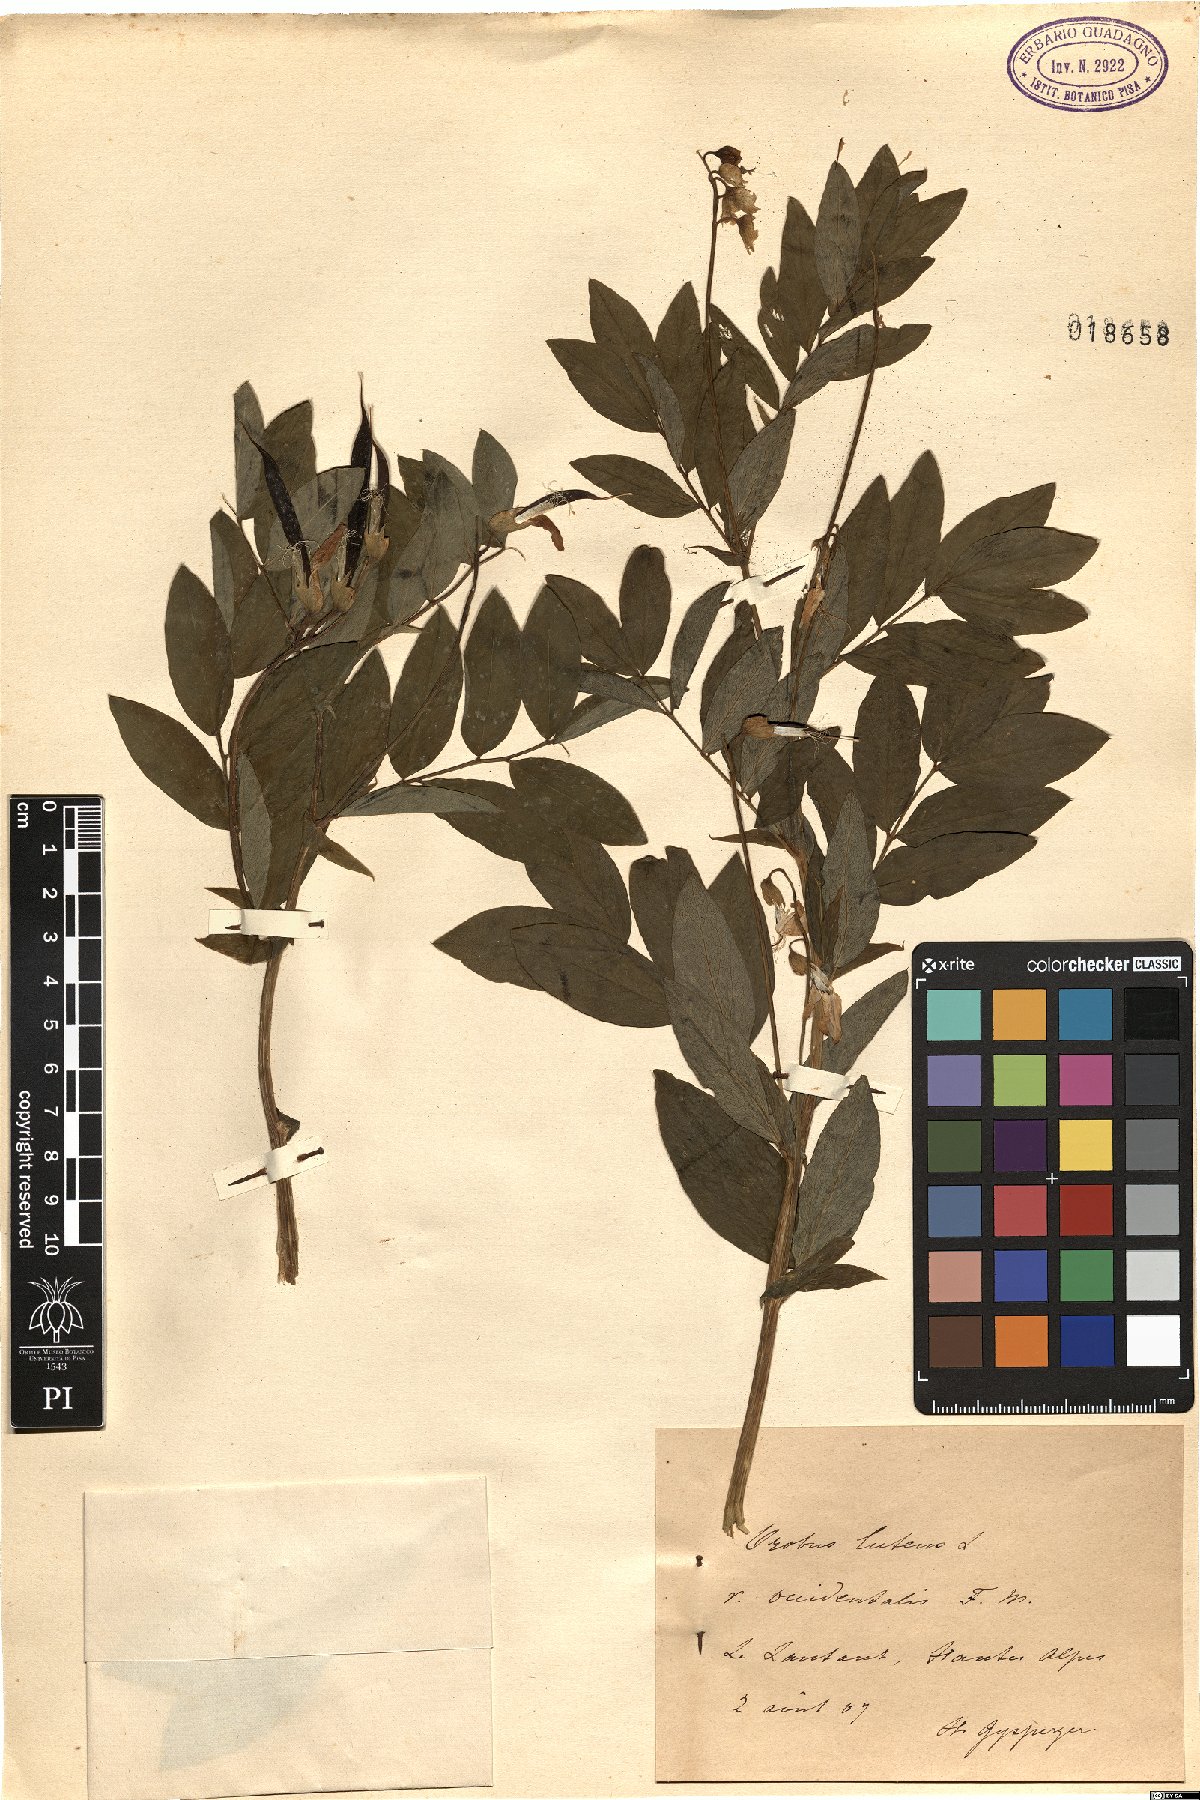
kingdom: Plantae
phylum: Tracheophyta
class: Magnoliopsida
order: Fabales
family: Fabaceae
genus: Lathyrus
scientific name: Lathyrus laevigatus
